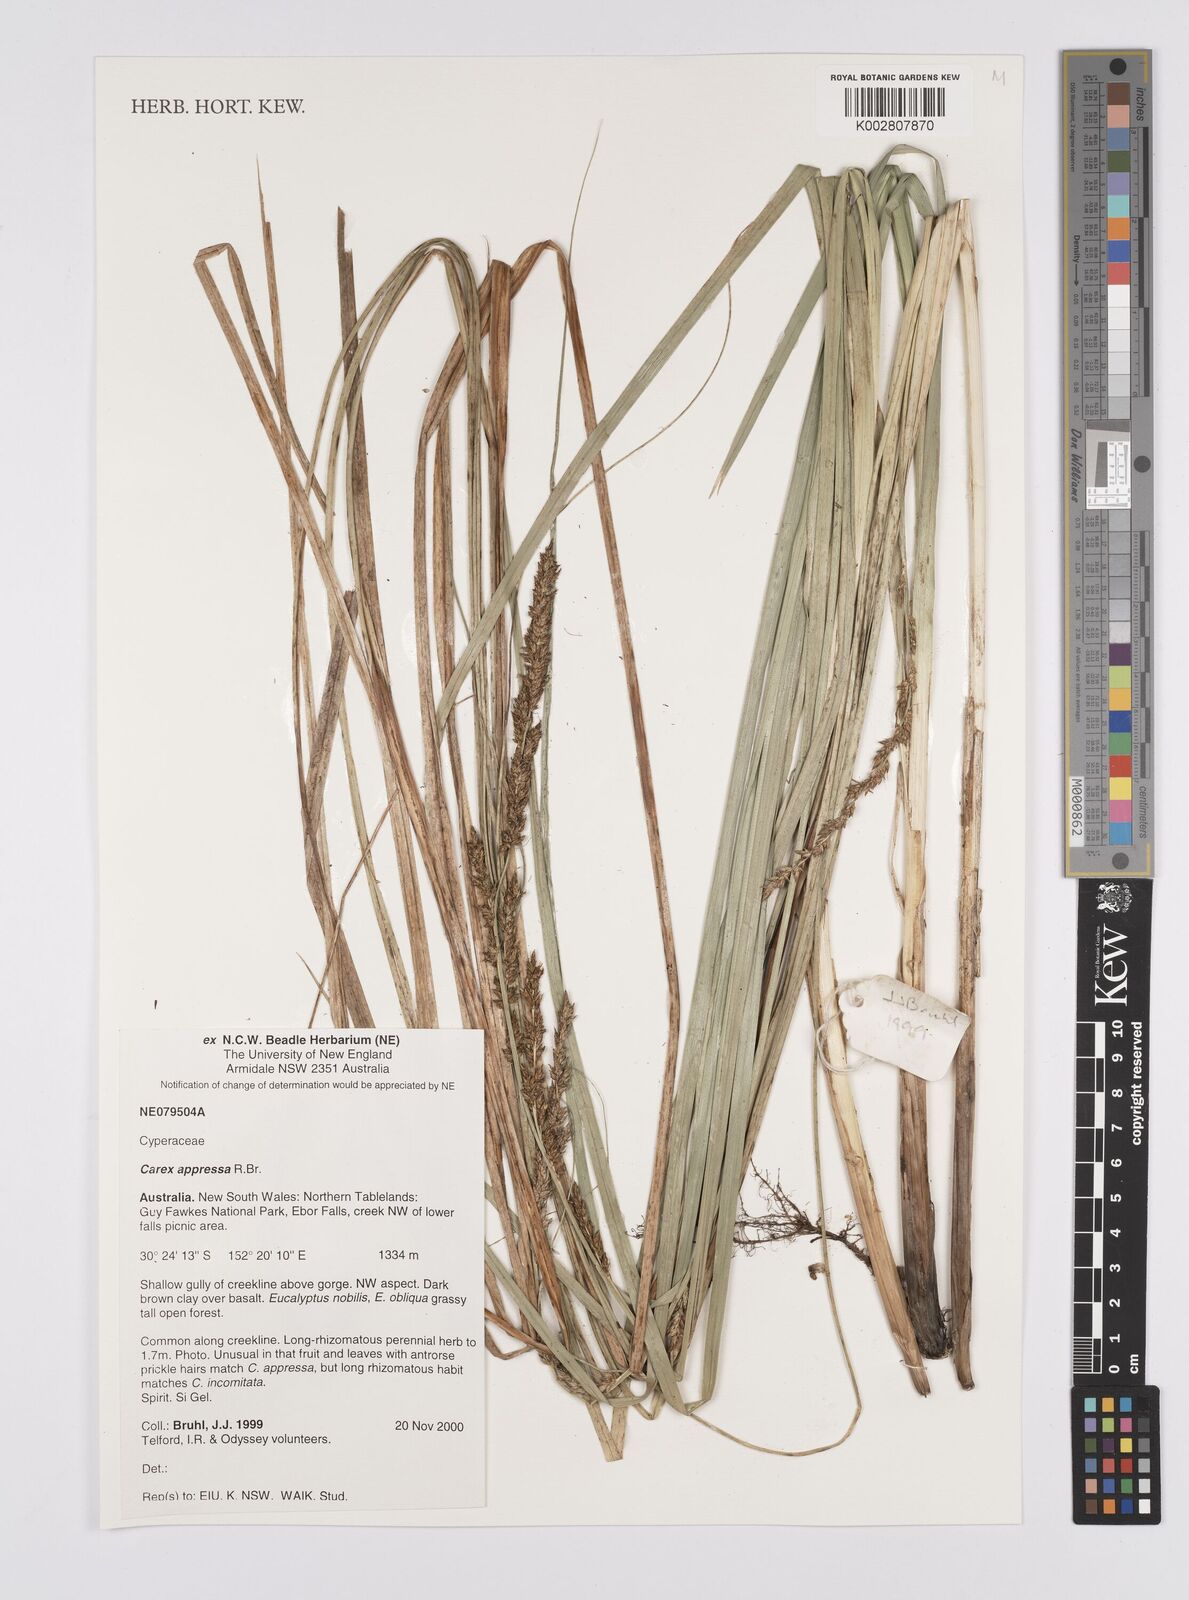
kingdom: Plantae
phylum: Tracheophyta
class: Liliopsida
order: Poales
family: Cyperaceae
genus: Carex
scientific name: Carex appressa
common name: Tussock sedge
